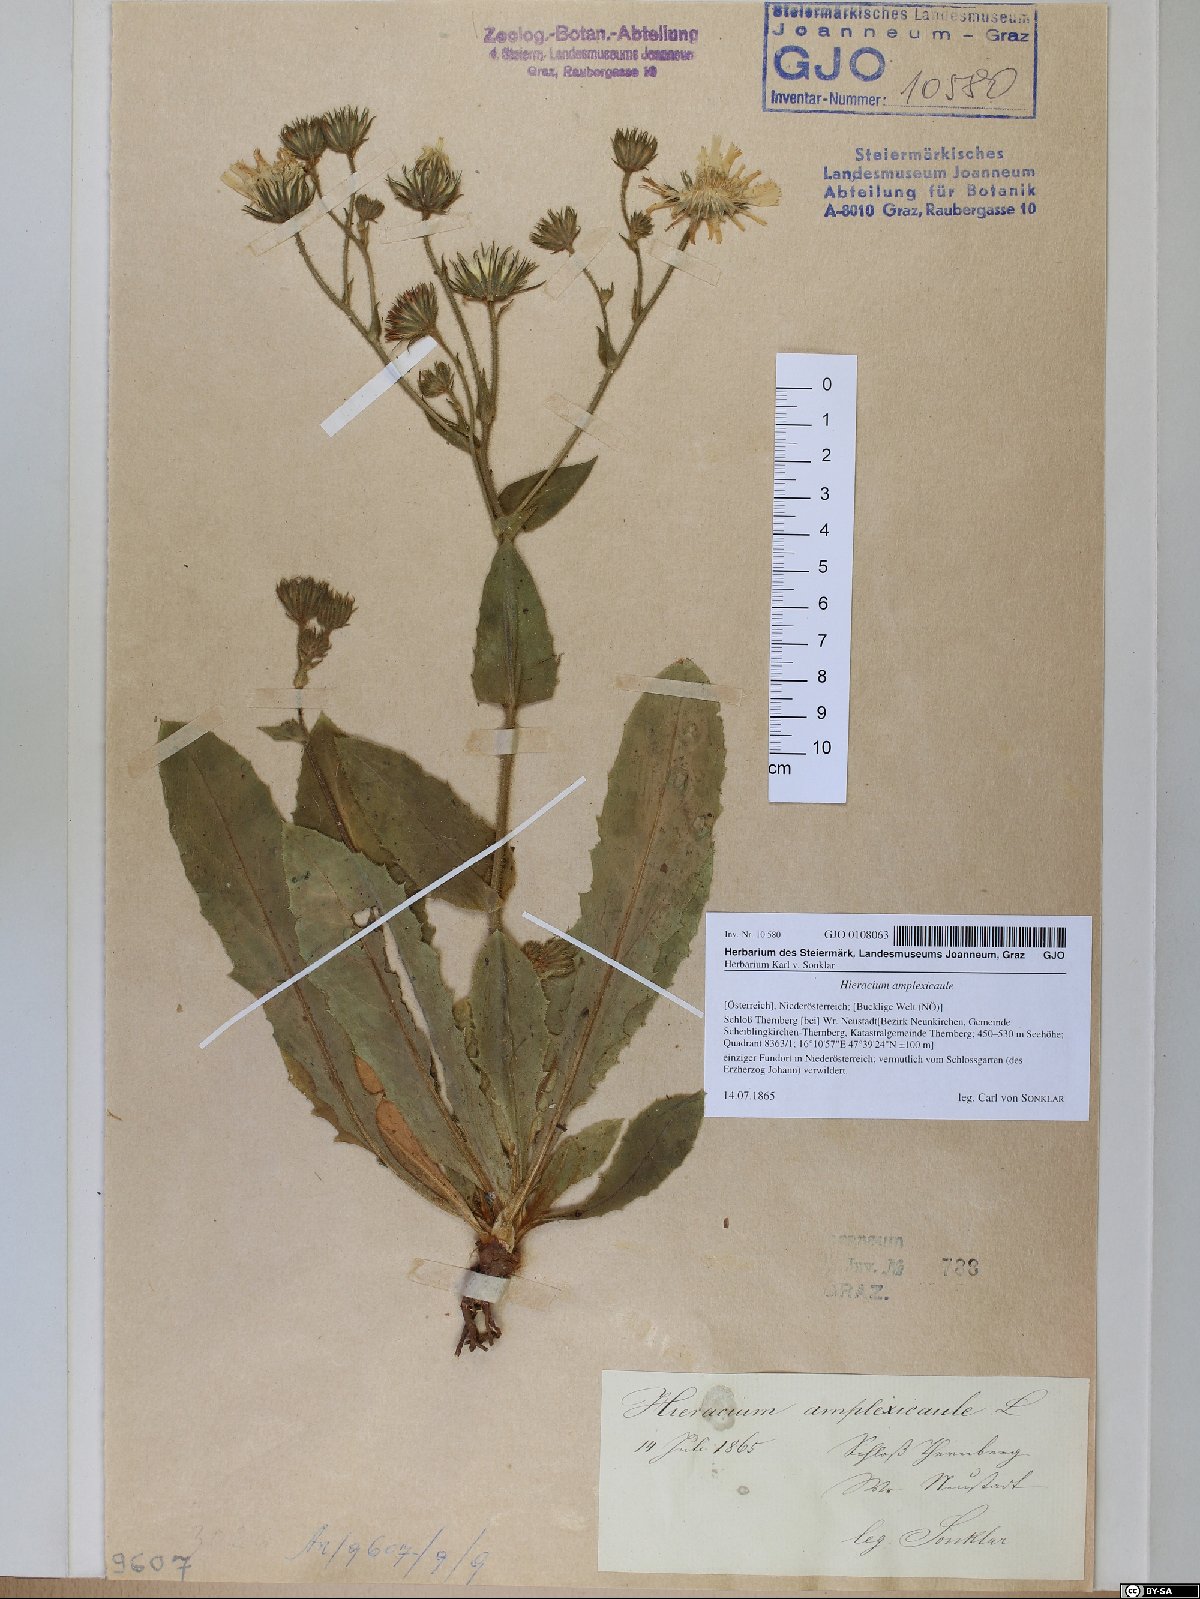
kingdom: Plantae
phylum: Tracheophyta
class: Magnoliopsida
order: Asterales
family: Asteraceae
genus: Hieracium
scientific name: Hieracium amplexicaule
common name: Sticky hawkweed
